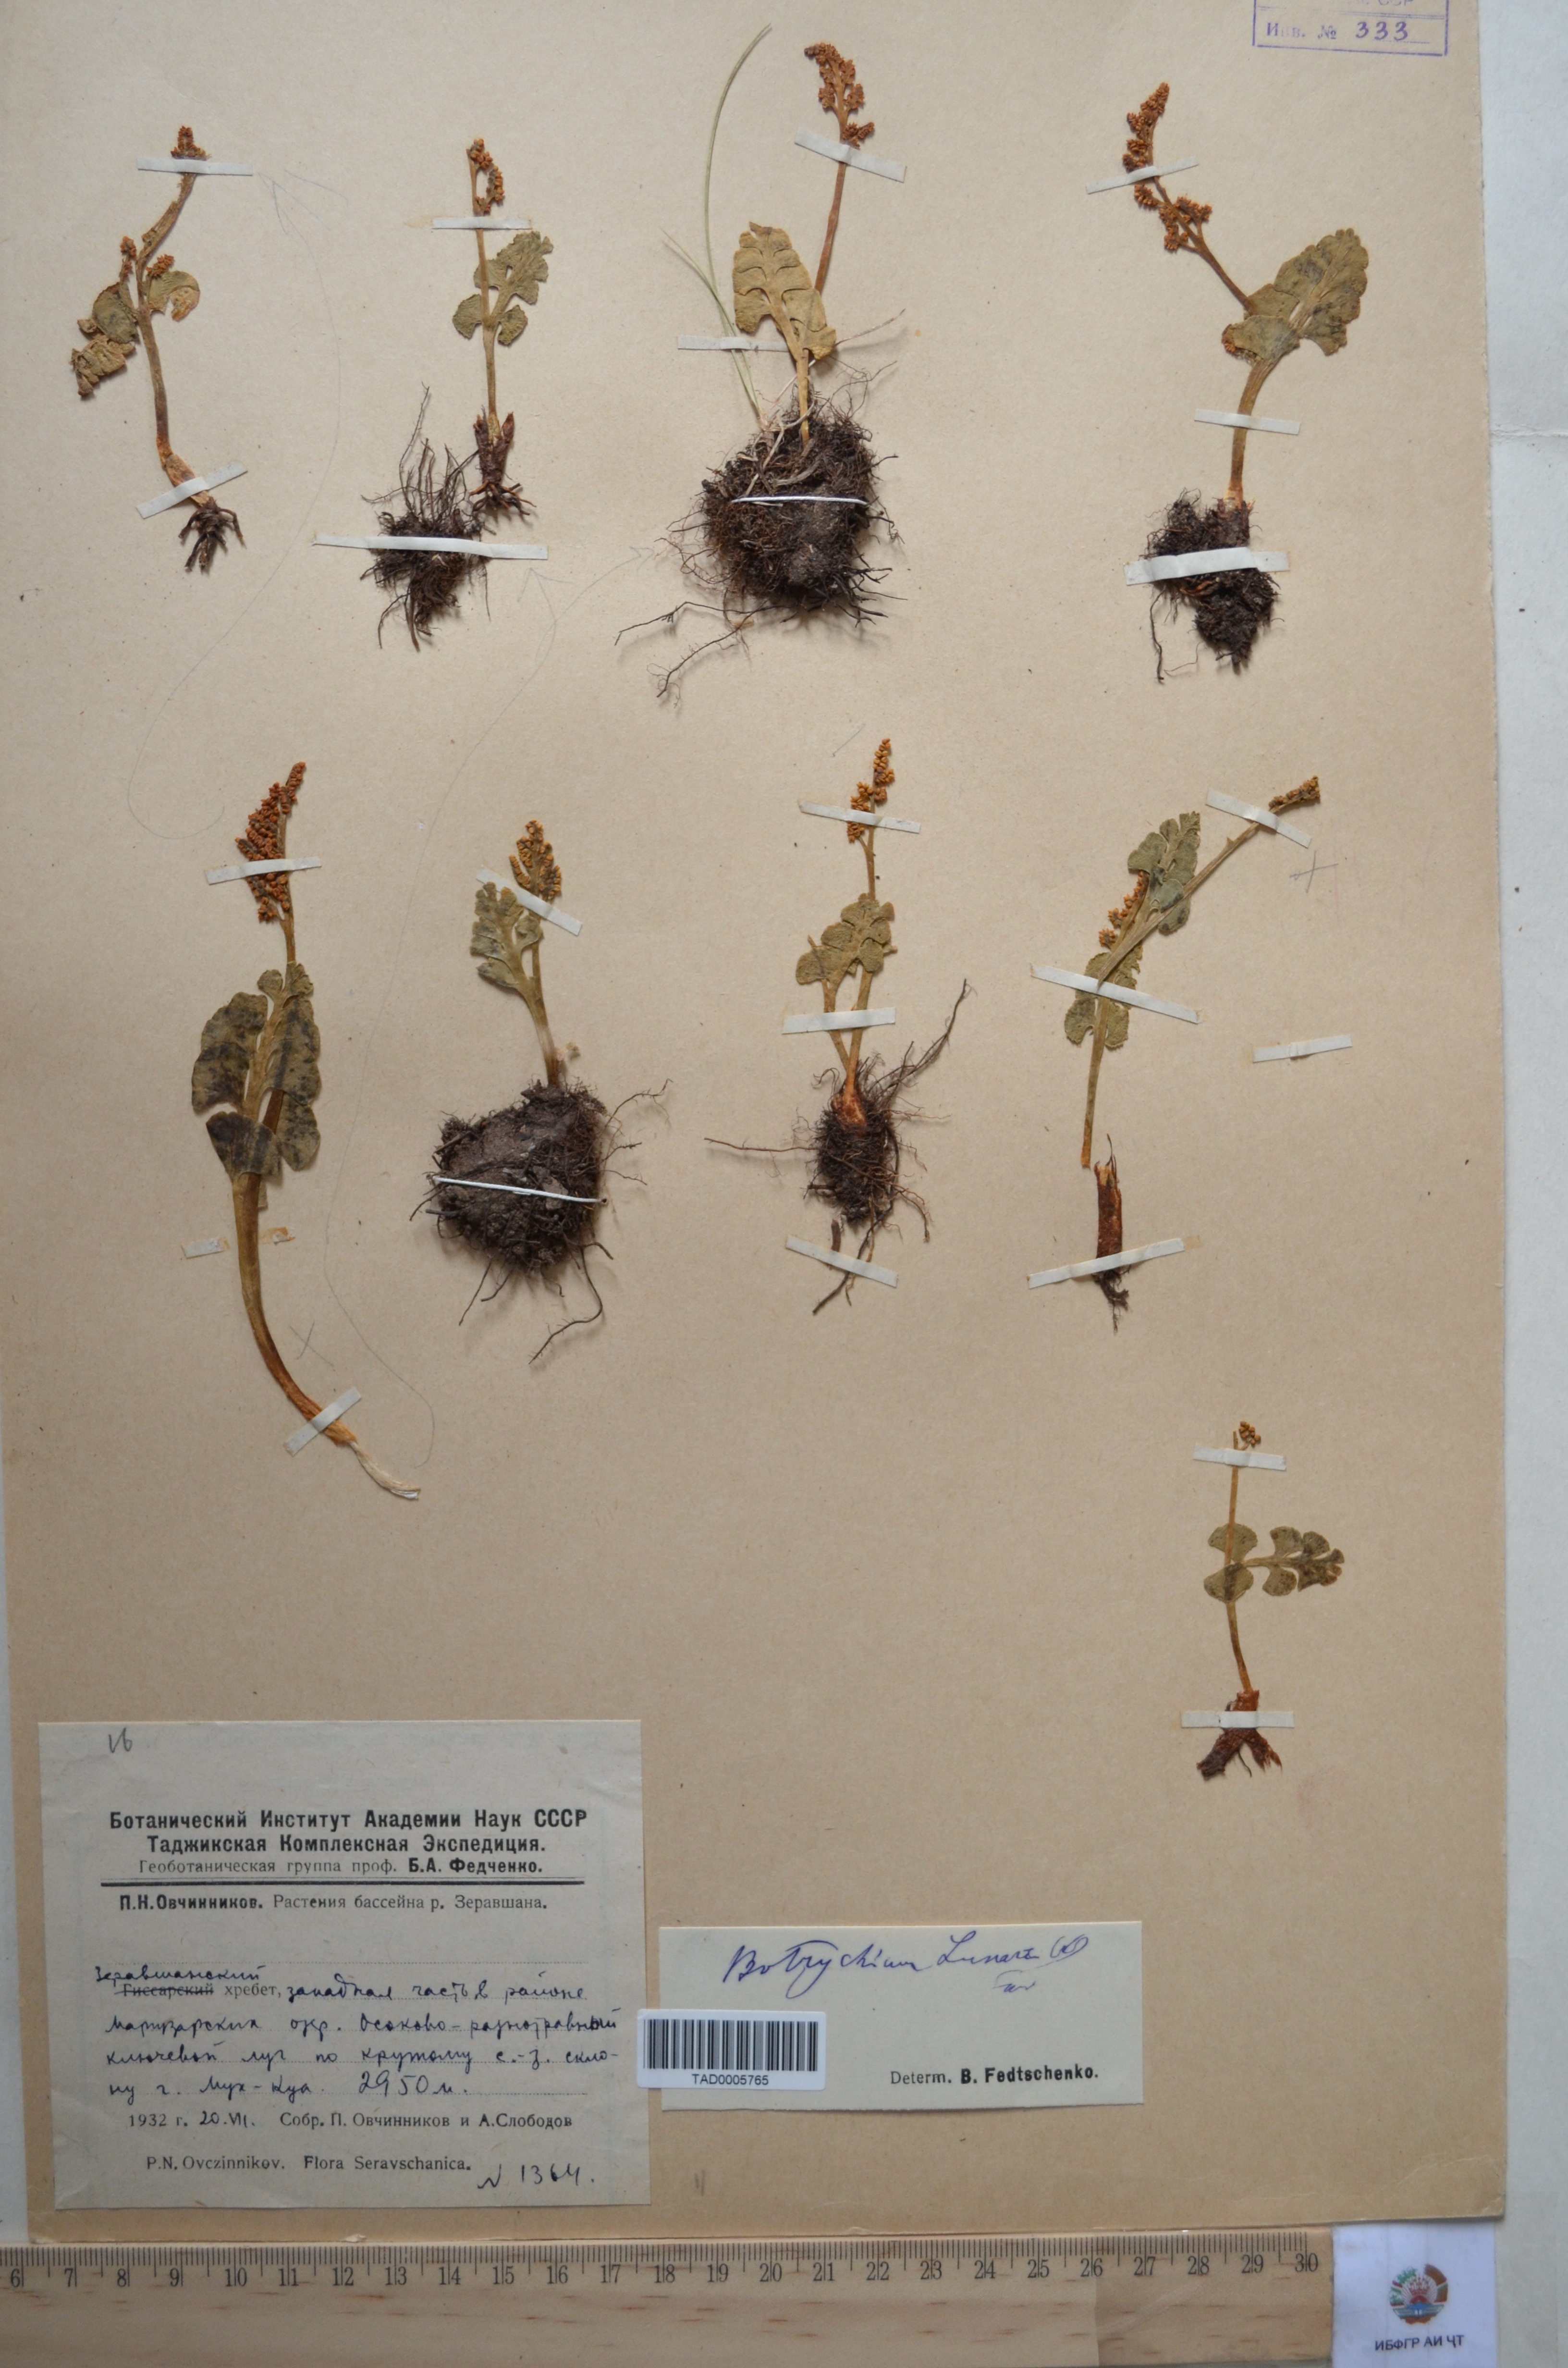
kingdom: Plantae
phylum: Tracheophyta
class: Polypodiopsida
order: Ophioglossales
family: Ophioglossaceae
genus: Botrychium
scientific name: Botrychium lunaria
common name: Moonwort
